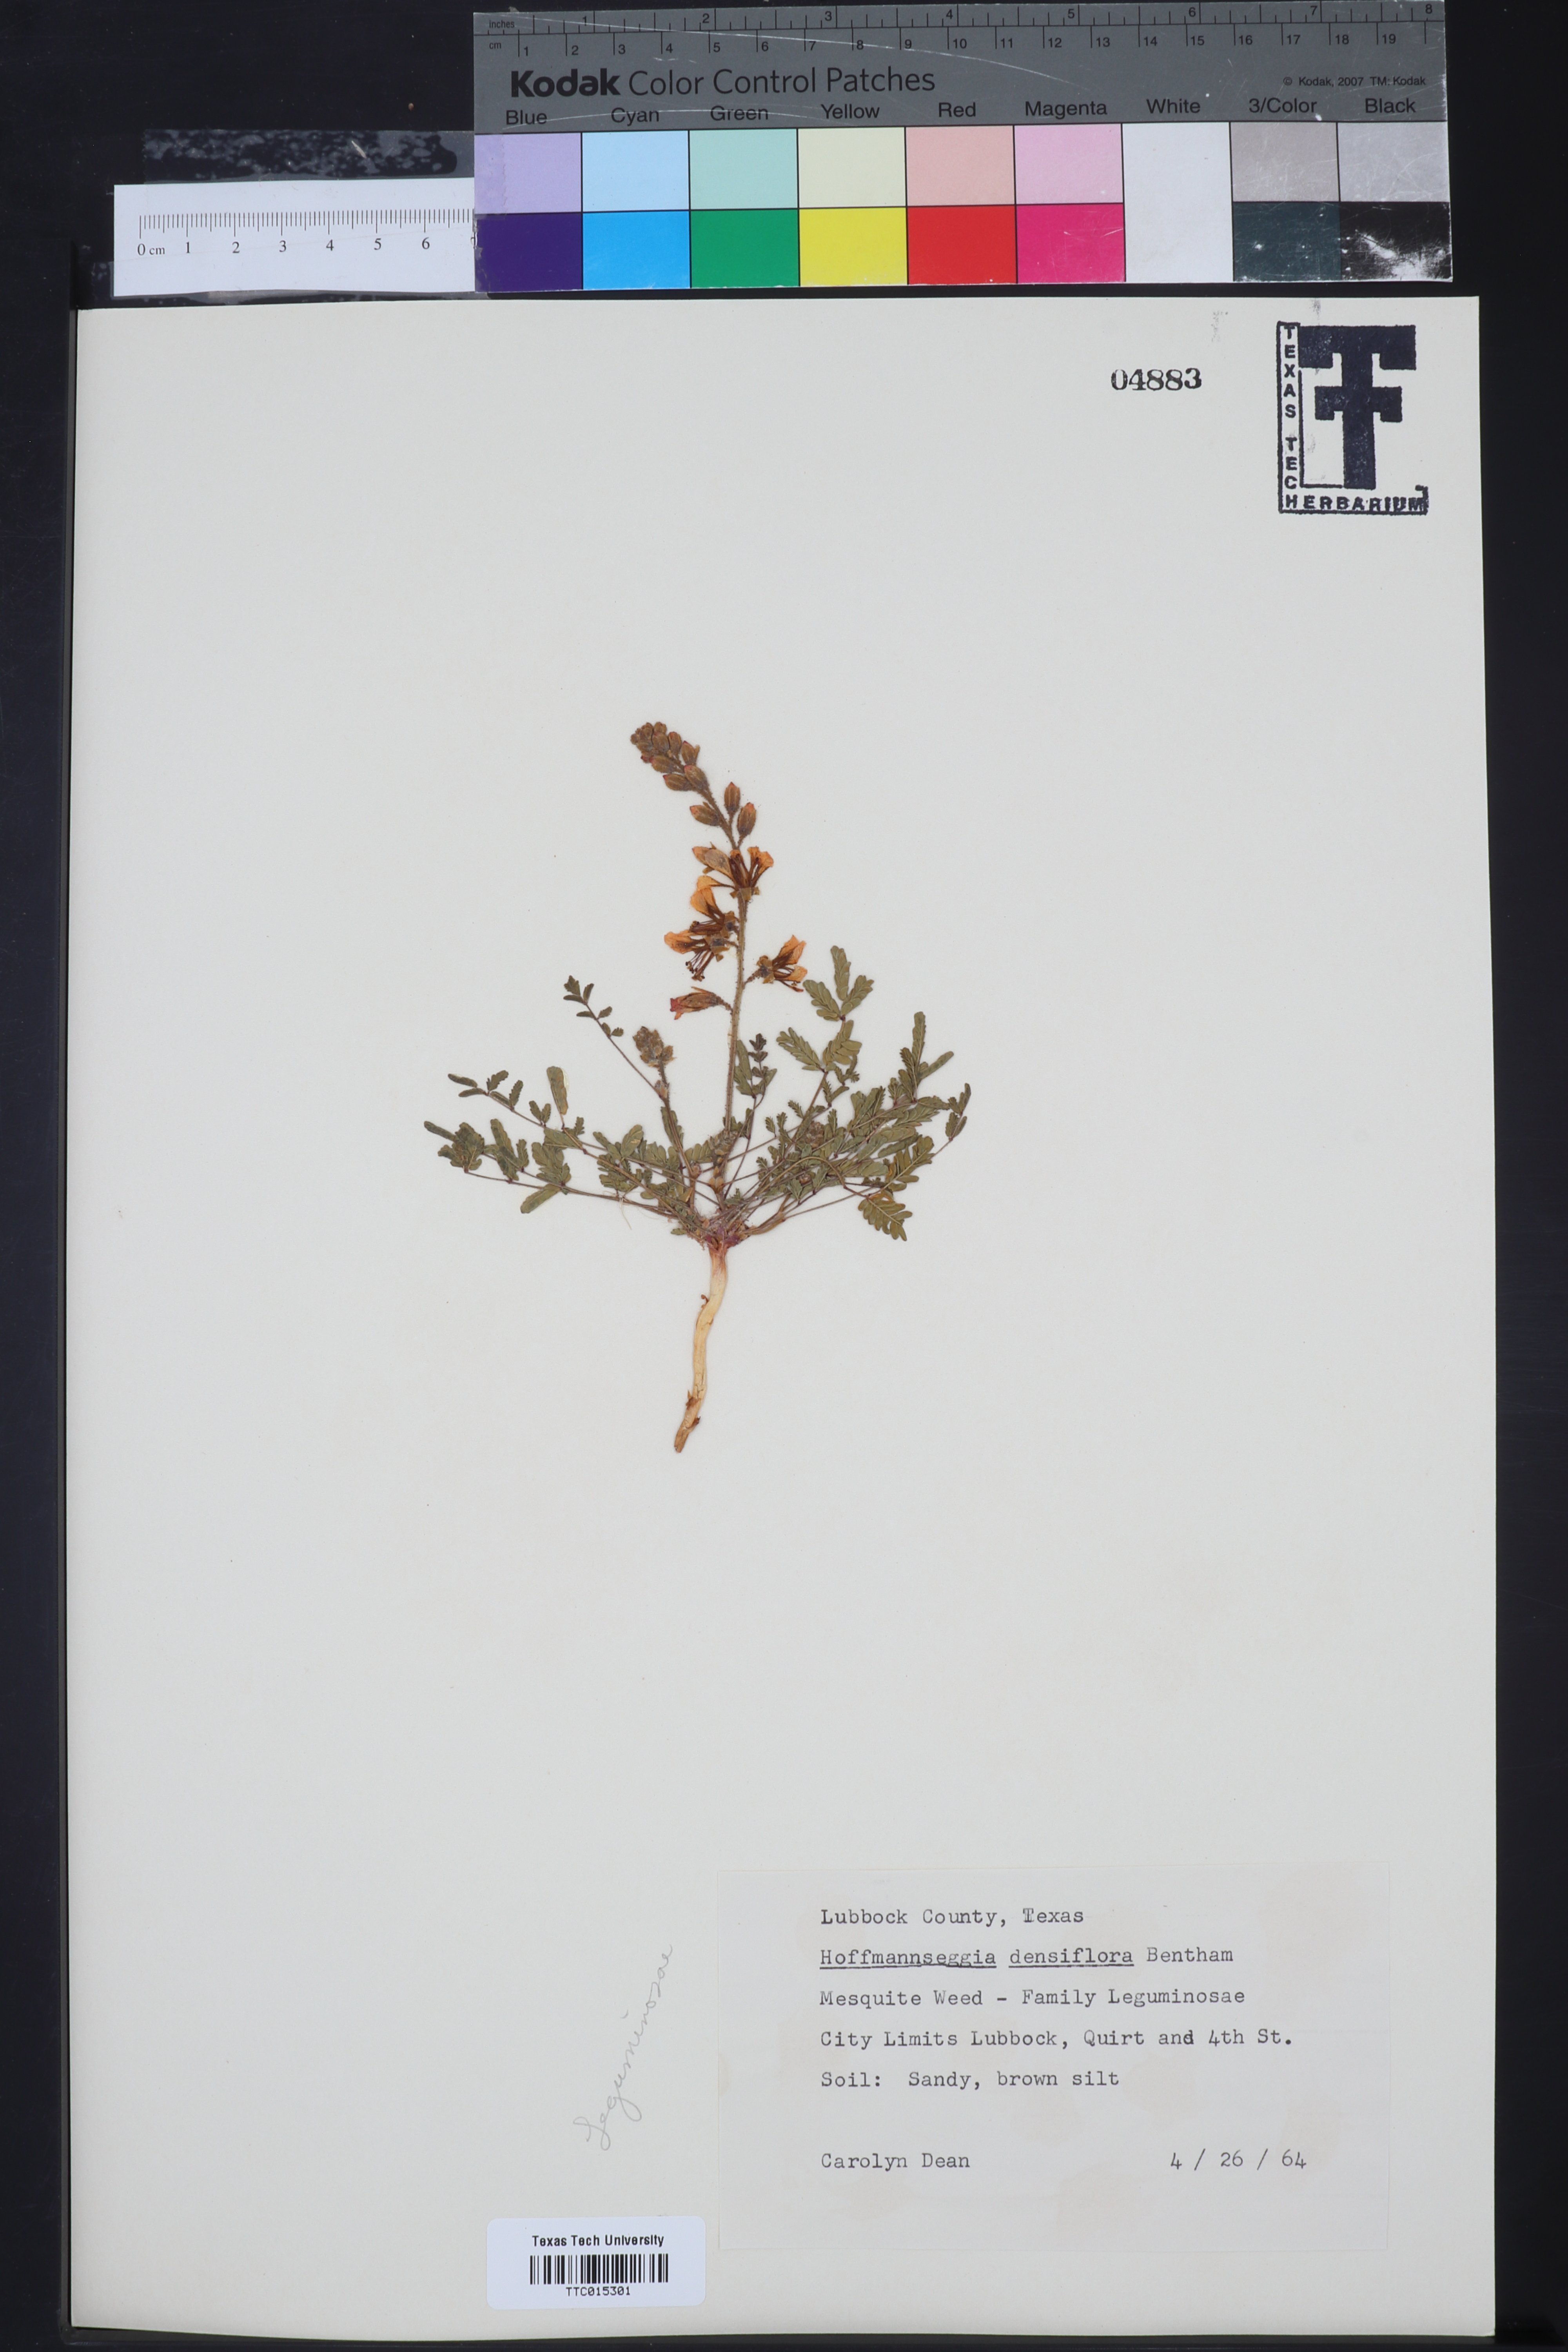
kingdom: Plantae
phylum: Tracheophyta
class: Magnoliopsida
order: Fabales
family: Fabaceae
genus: Hoffmannseggia
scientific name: Hoffmannseggia glauca
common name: Pignut
